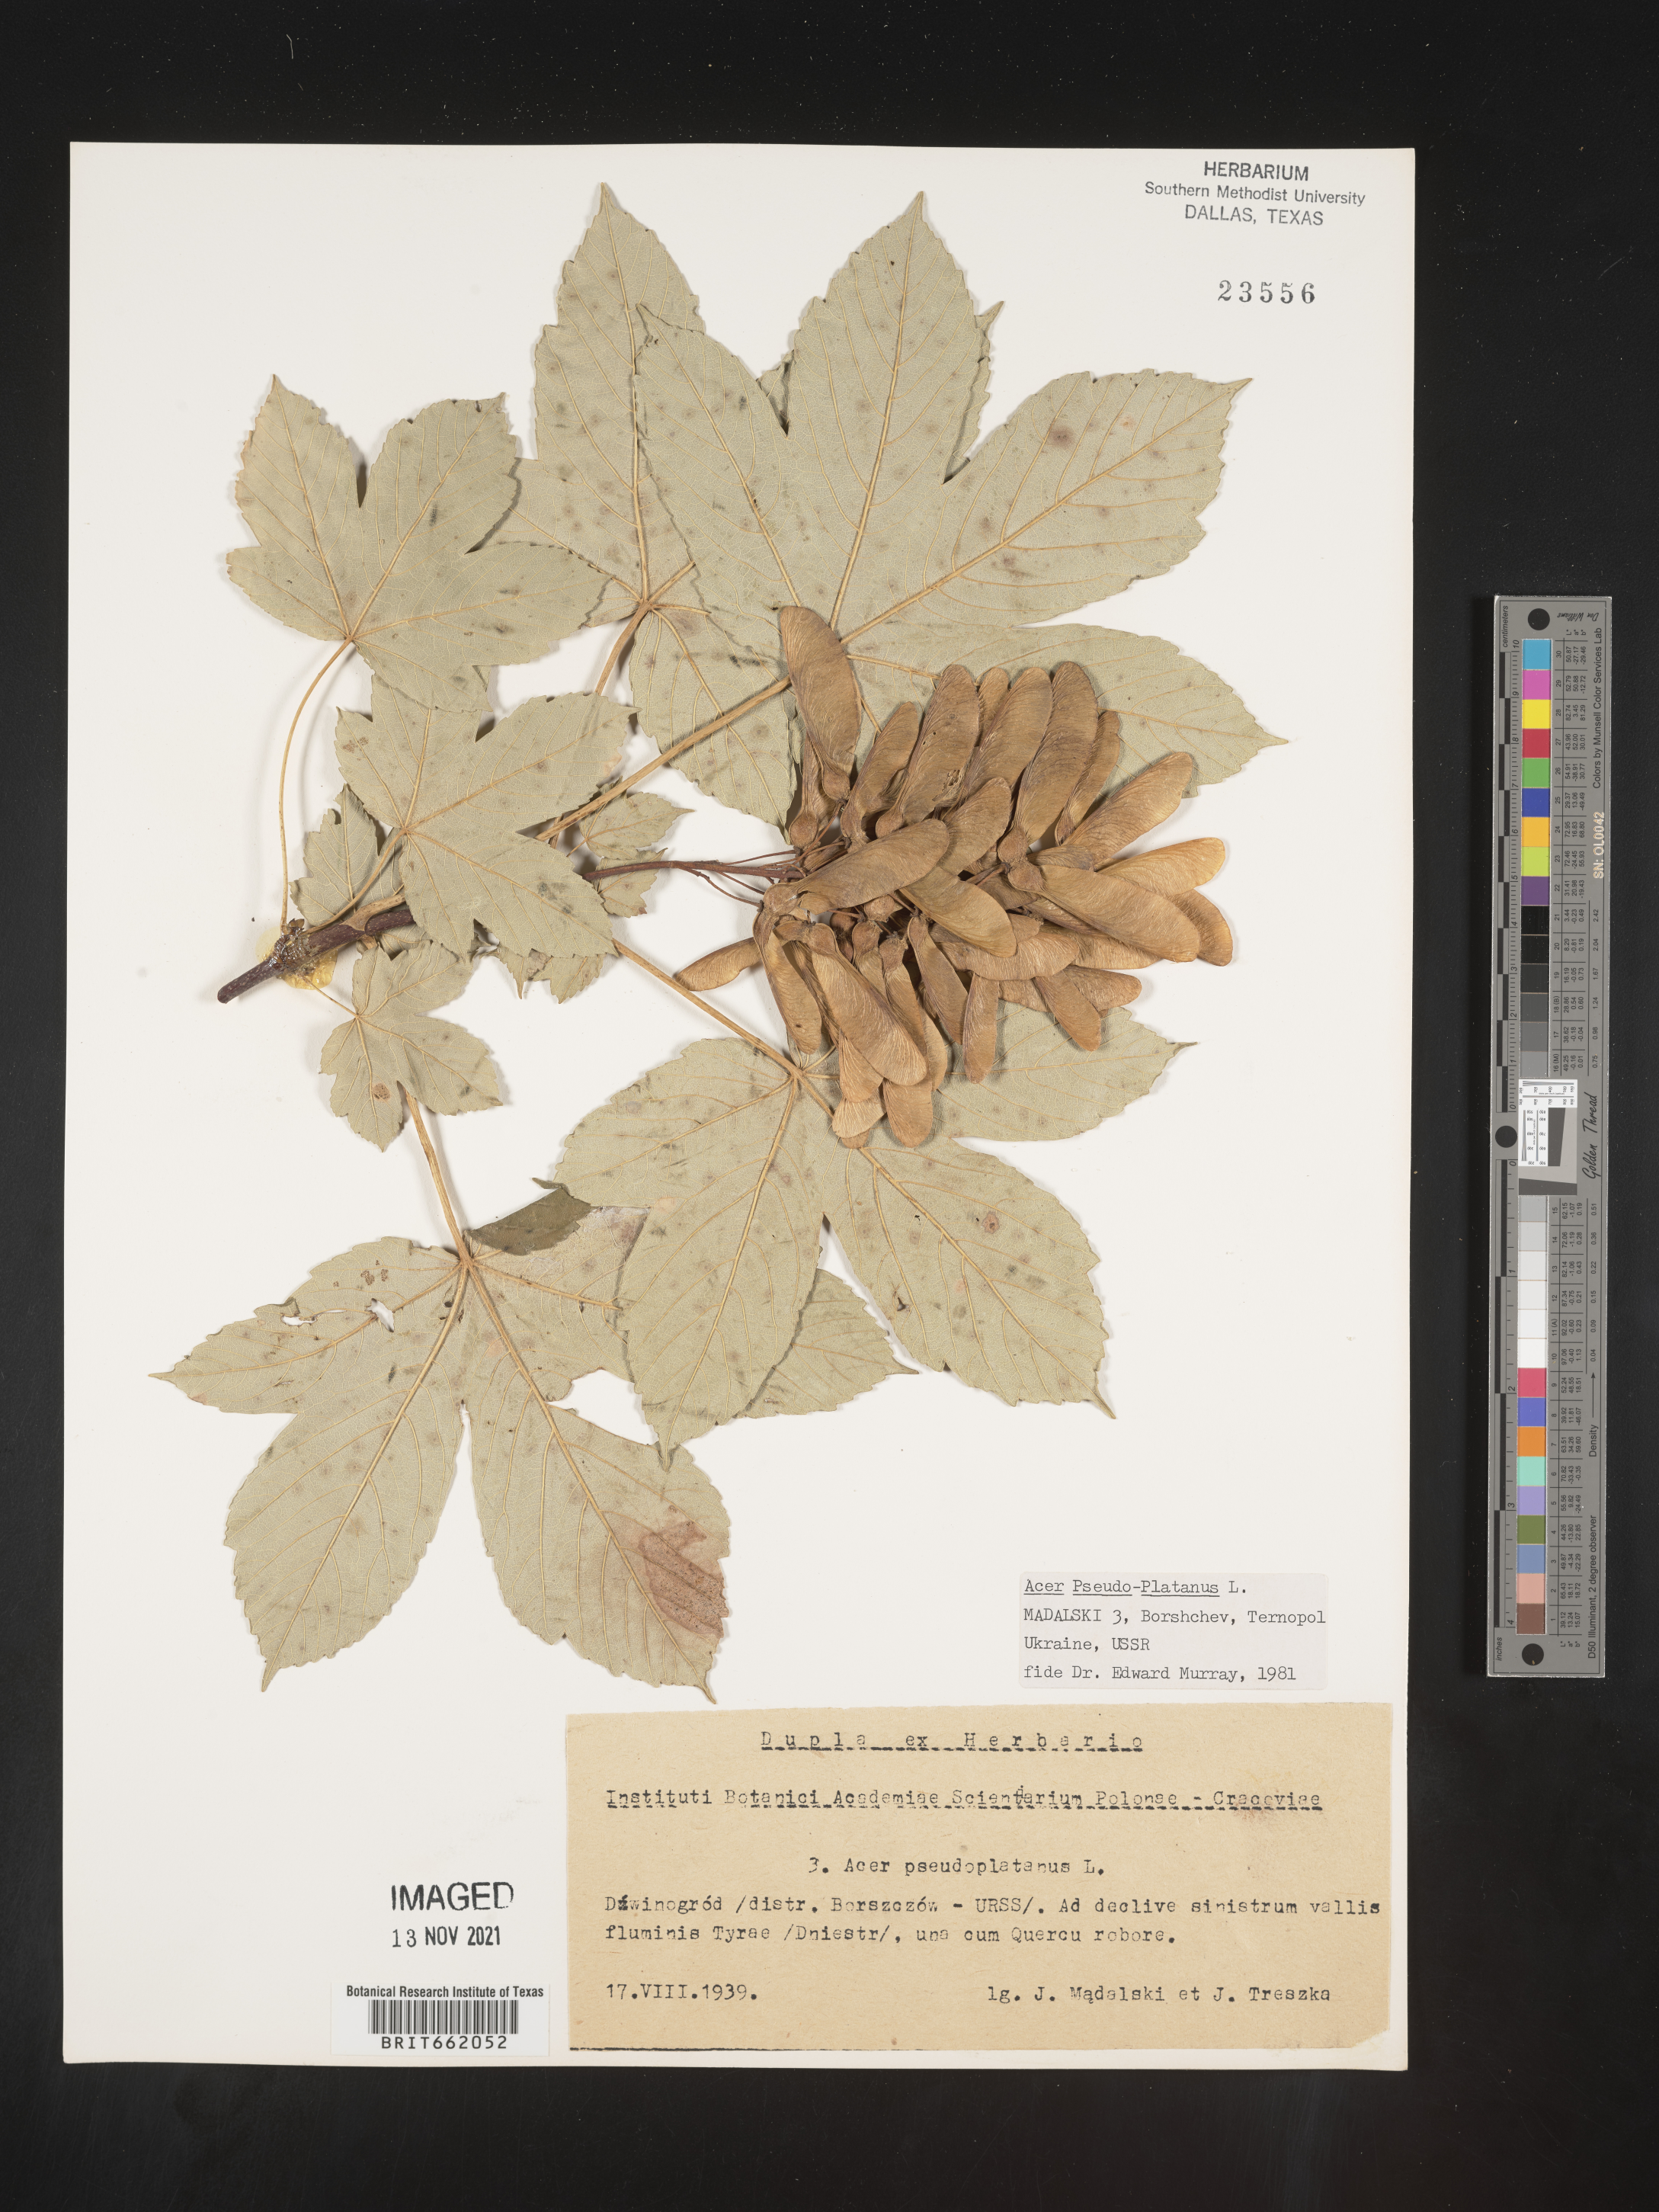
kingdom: Plantae
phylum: Tracheophyta
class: Magnoliopsida
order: Sapindales
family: Sapindaceae
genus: Acer
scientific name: Acer
